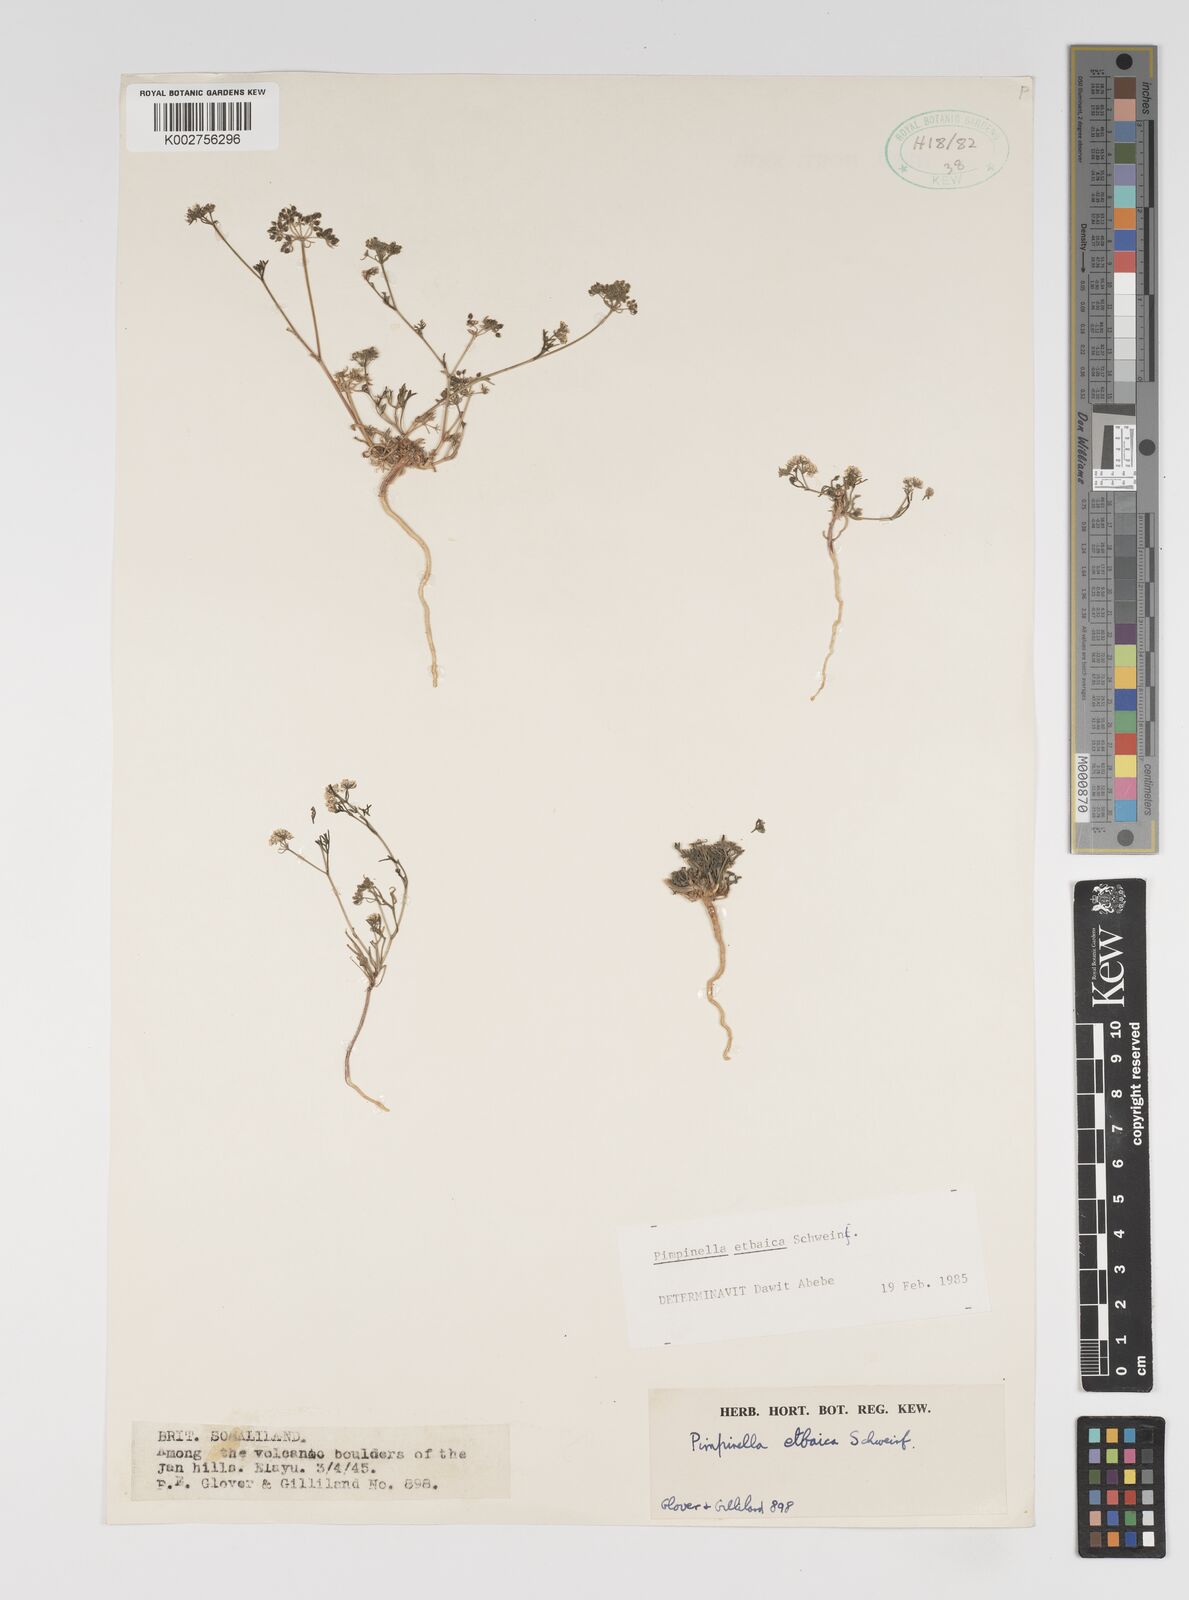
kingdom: Plantae
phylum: Tracheophyta
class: Magnoliopsida
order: Apiales
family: Apiaceae
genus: Pimpinella
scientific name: Pimpinella etbaica
